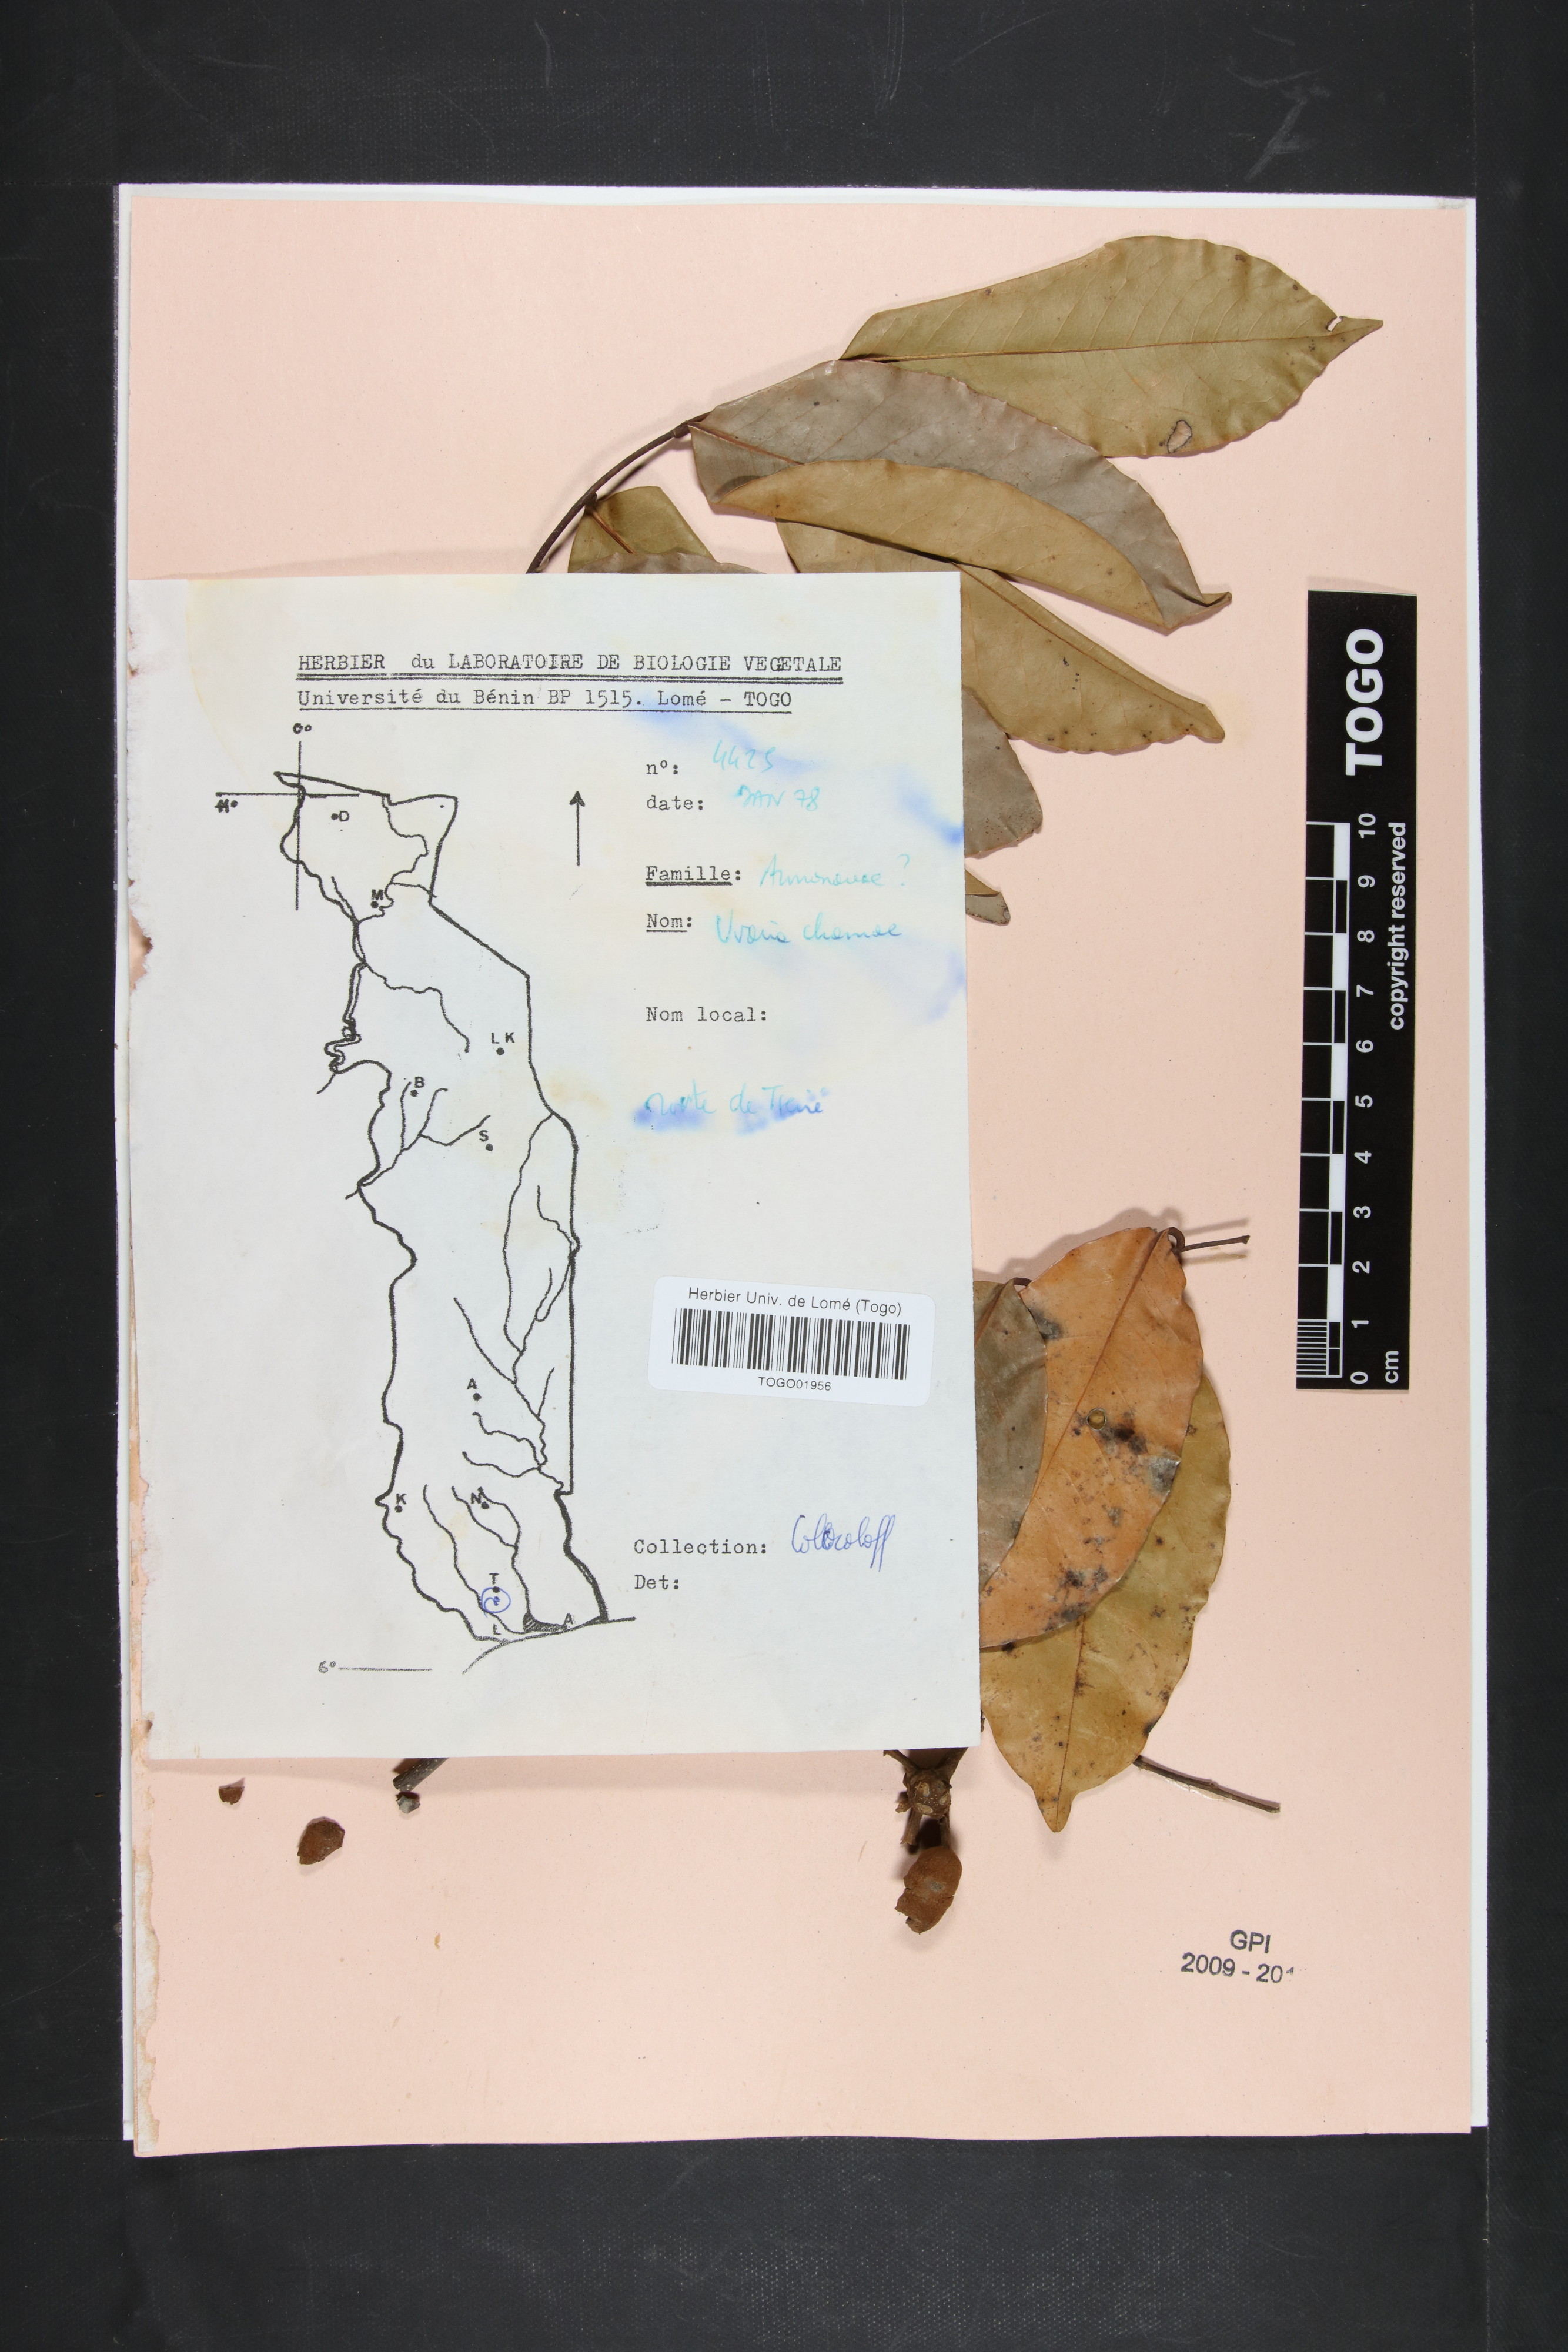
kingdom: Plantae
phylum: Tracheophyta
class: Magnoliopsida
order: Magnoliales
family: Annonaceae
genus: Uvaria
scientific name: Uvaria chamae
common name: Finger-root
